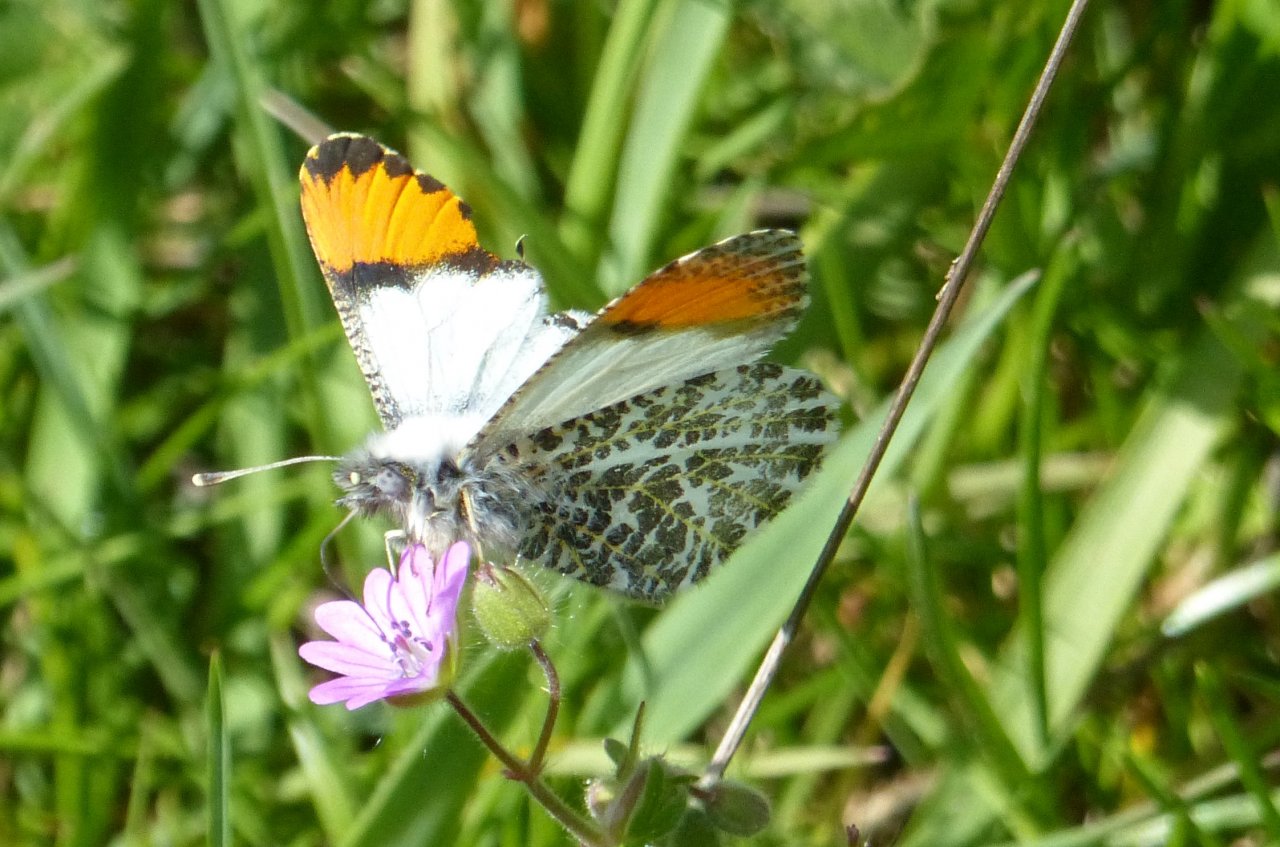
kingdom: Animalia
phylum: Arthropoda
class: Insecta
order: Lepidoptera
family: Pieridae
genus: Anthocharis
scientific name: Anthocharis sara
